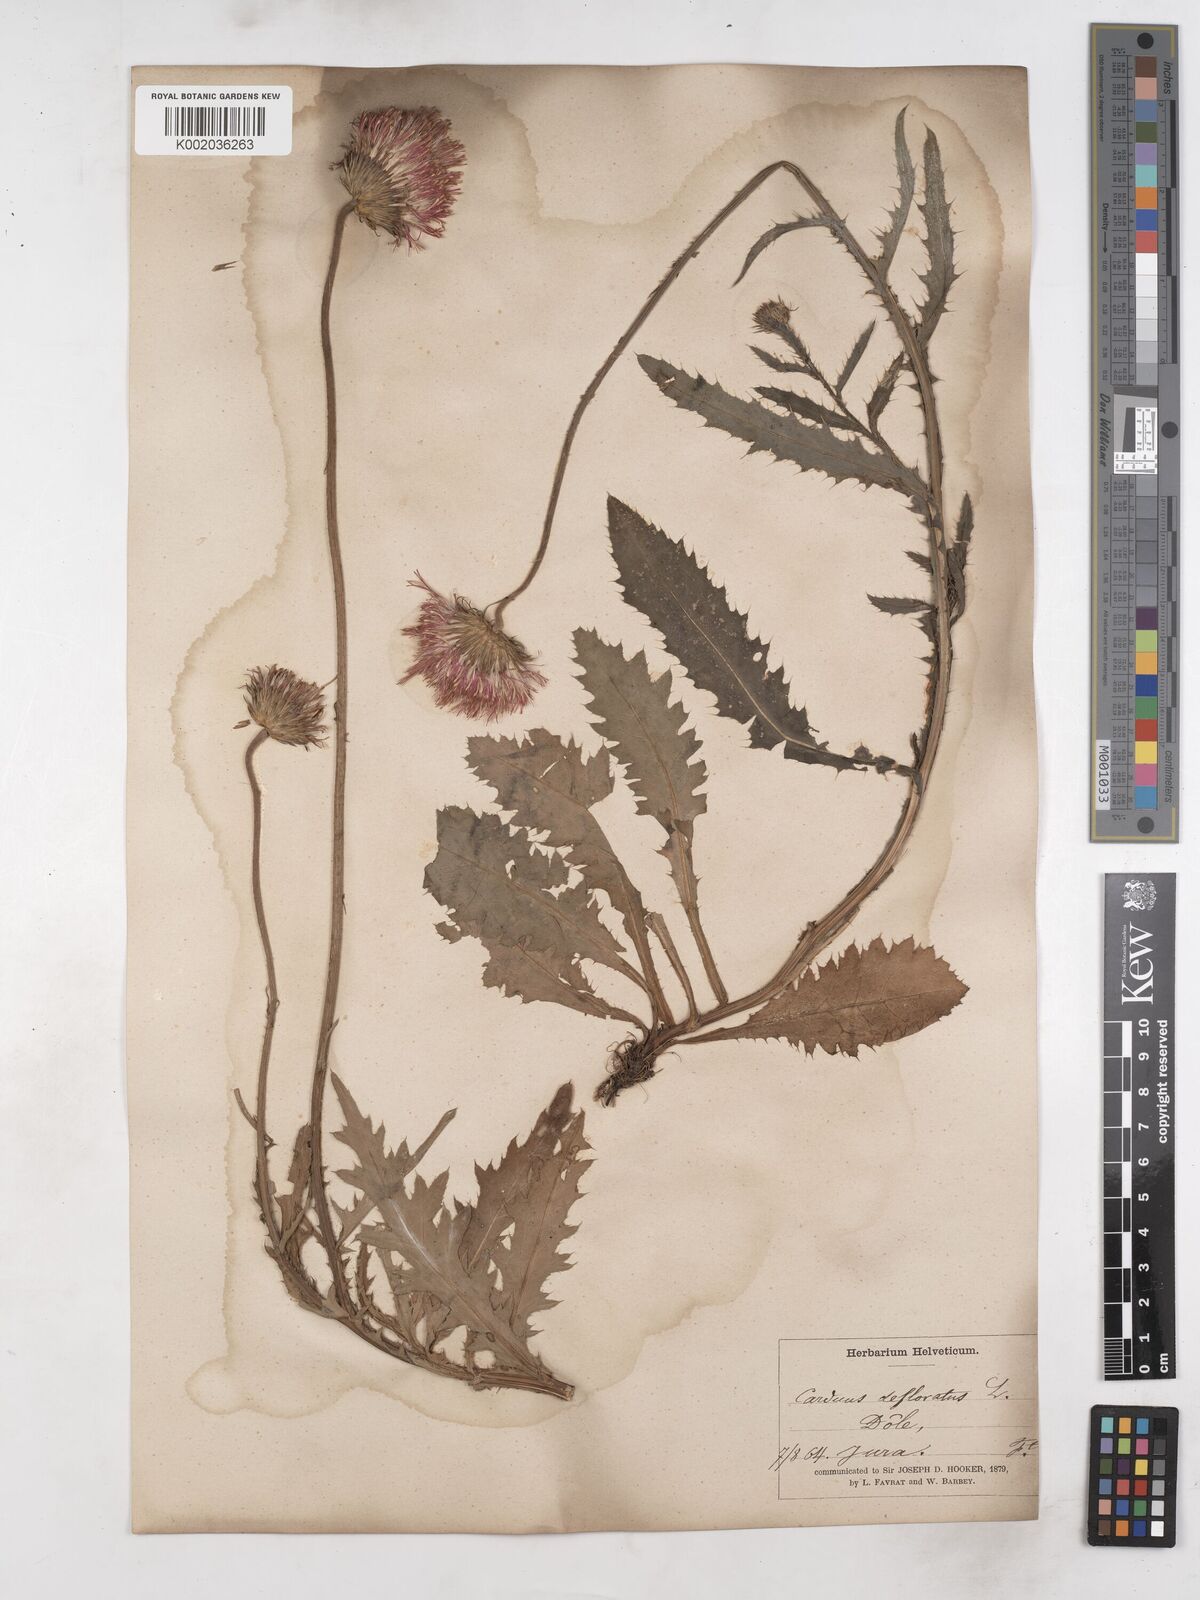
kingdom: Plantae
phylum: Tracheophyta
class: Magnoliopsida
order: Asterales
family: Asteraceae
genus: Carduus
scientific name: Carduus defloratus
